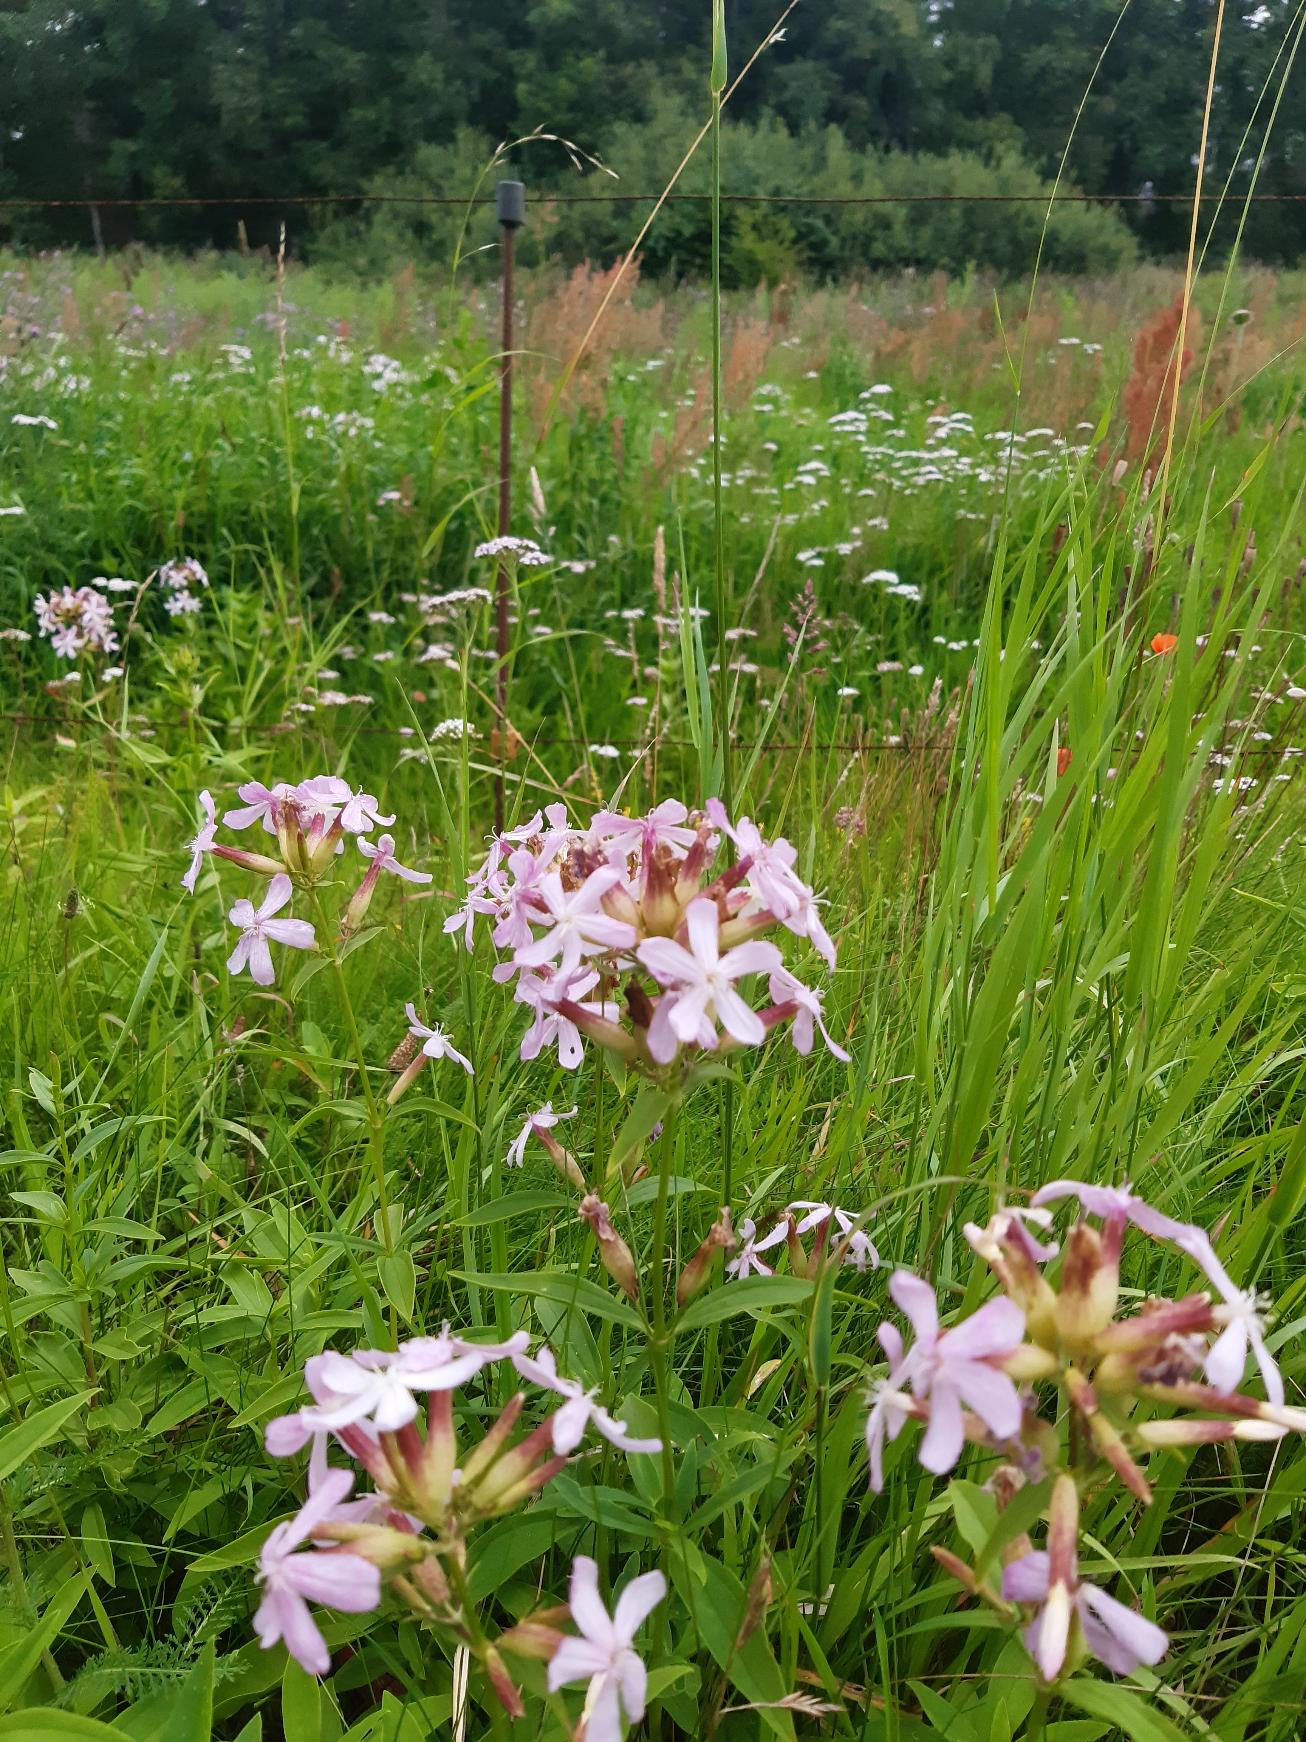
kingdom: Plantae
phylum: Tracheophyta
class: Magnoliopsida
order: Caryophyllales
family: Caryophyllaceae
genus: Saponaria
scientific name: Saponaria officinalis
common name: Sæbeurt
